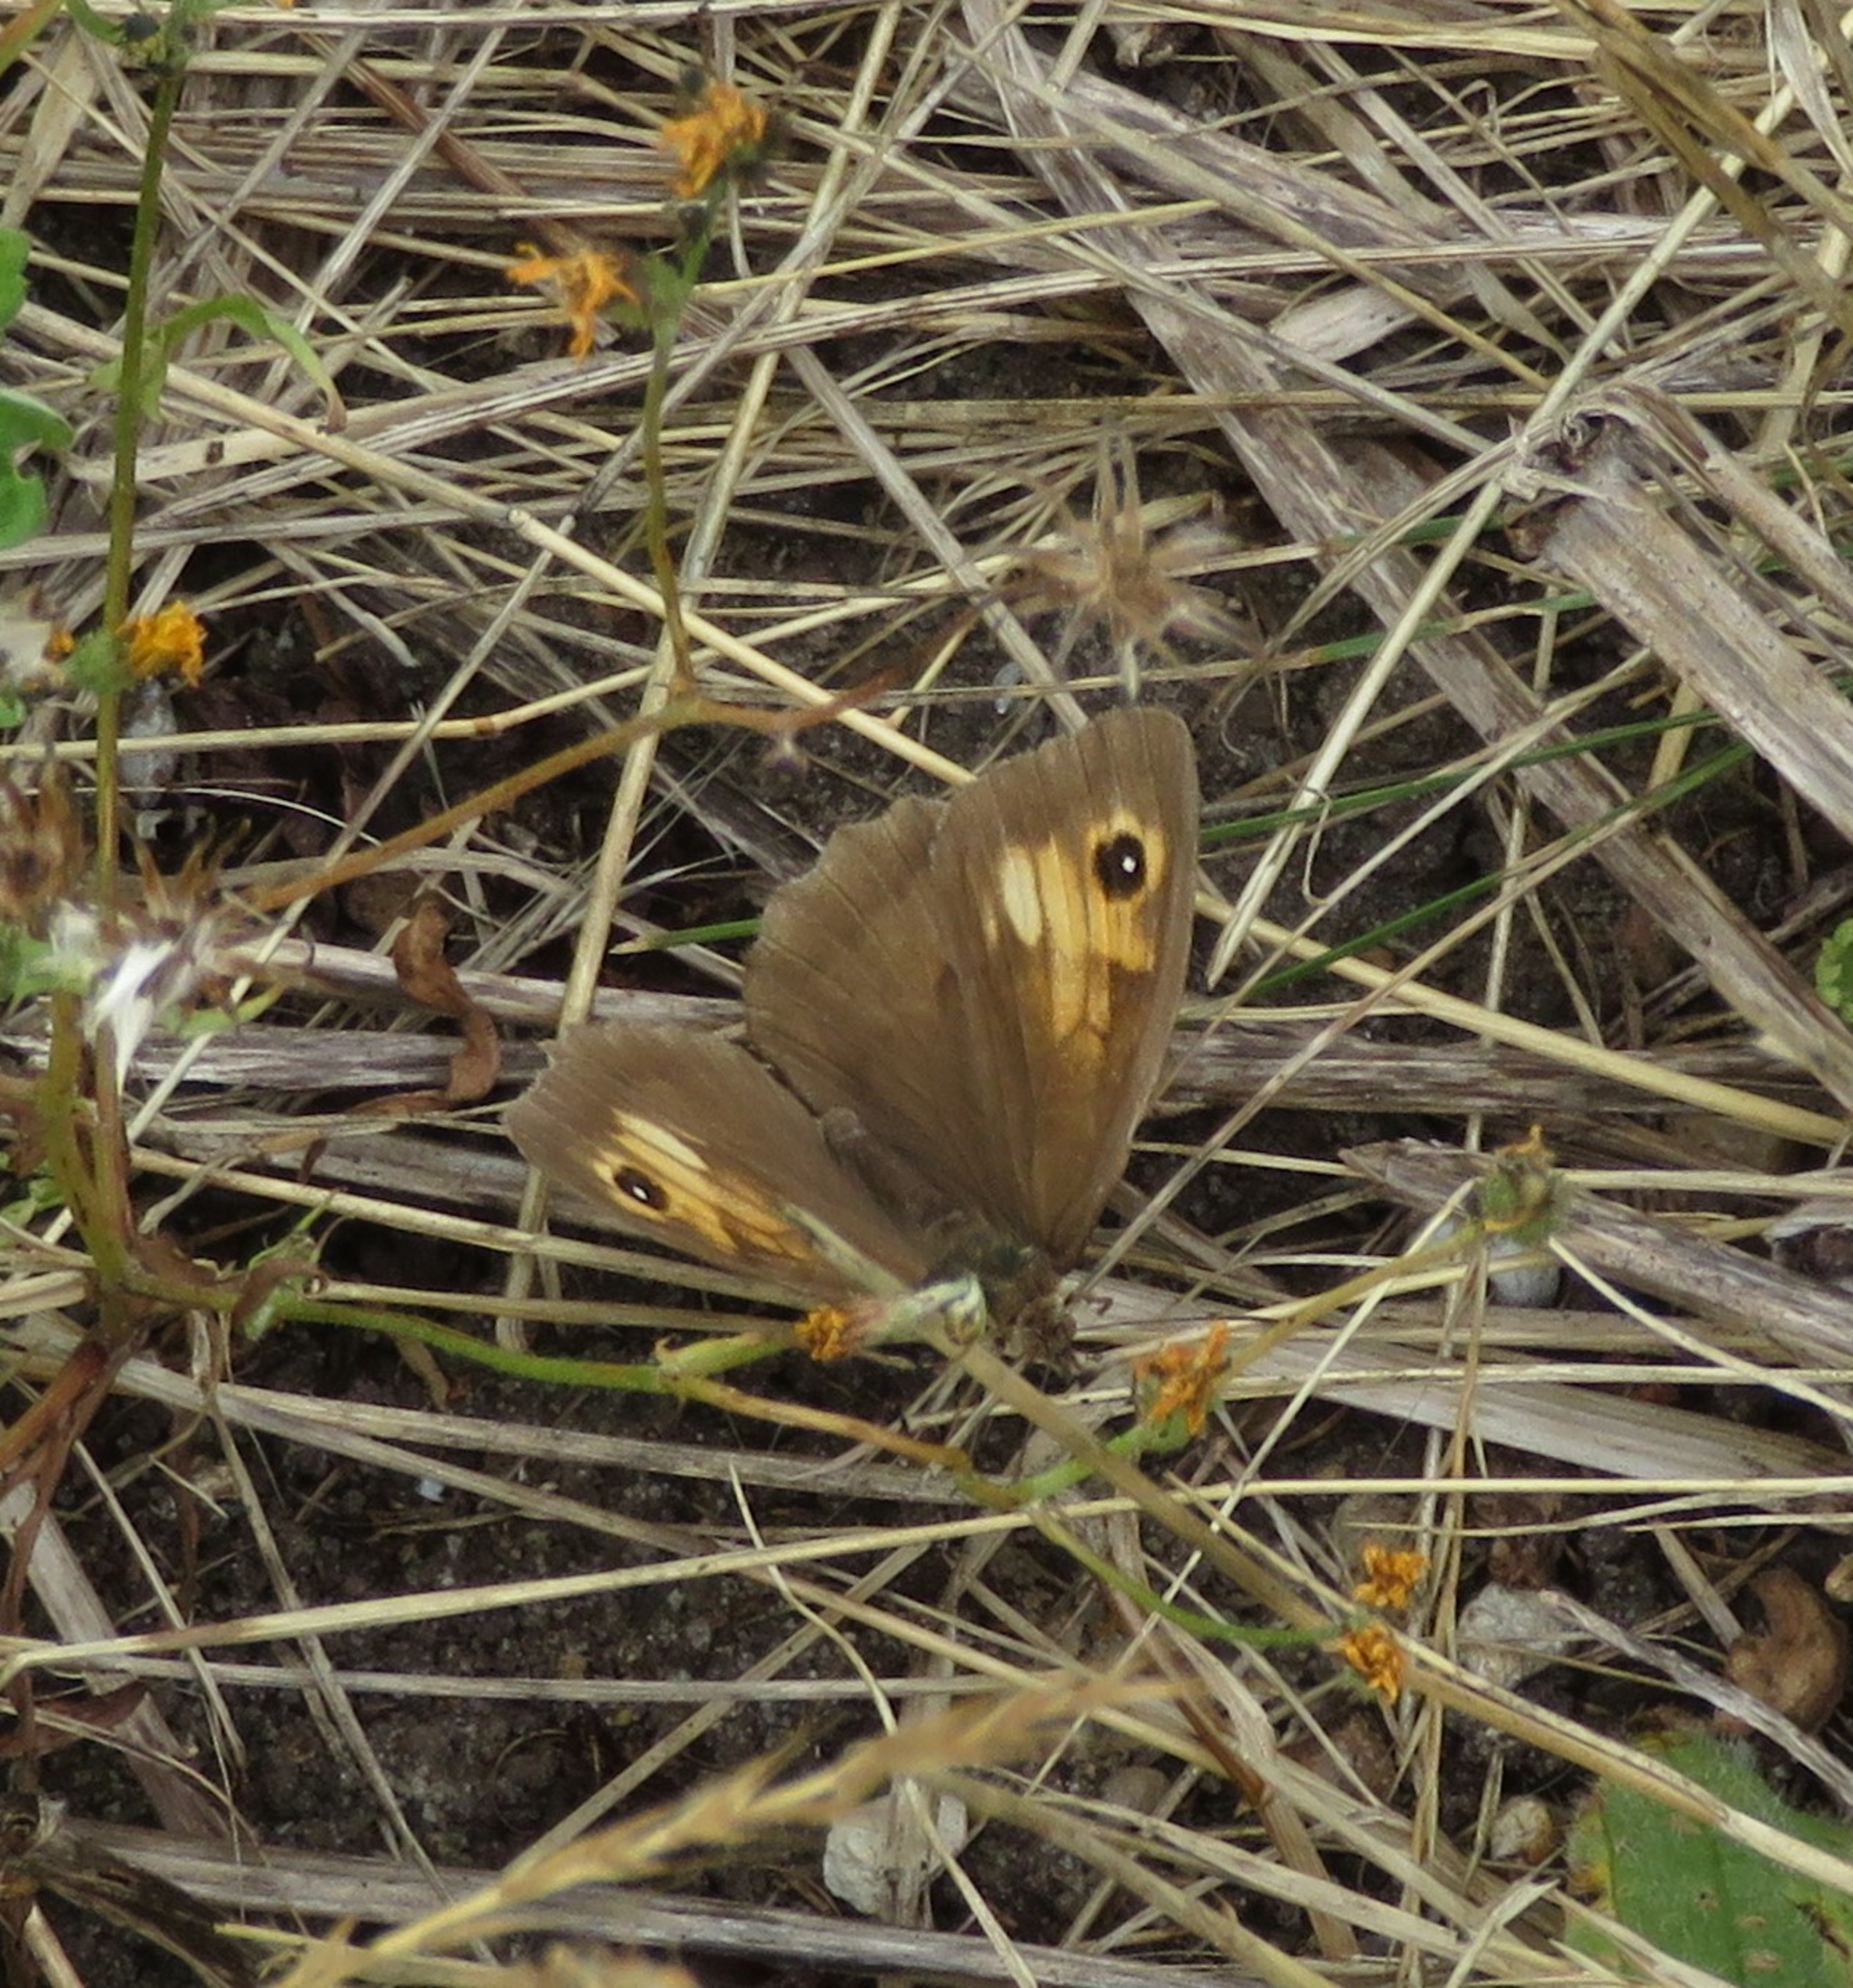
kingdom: Animalia
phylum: Arthropoda
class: Insecta
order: Lepidoptera
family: Nymphalidae
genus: Maniola
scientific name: Maniola jurtina
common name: Græsrandøje
